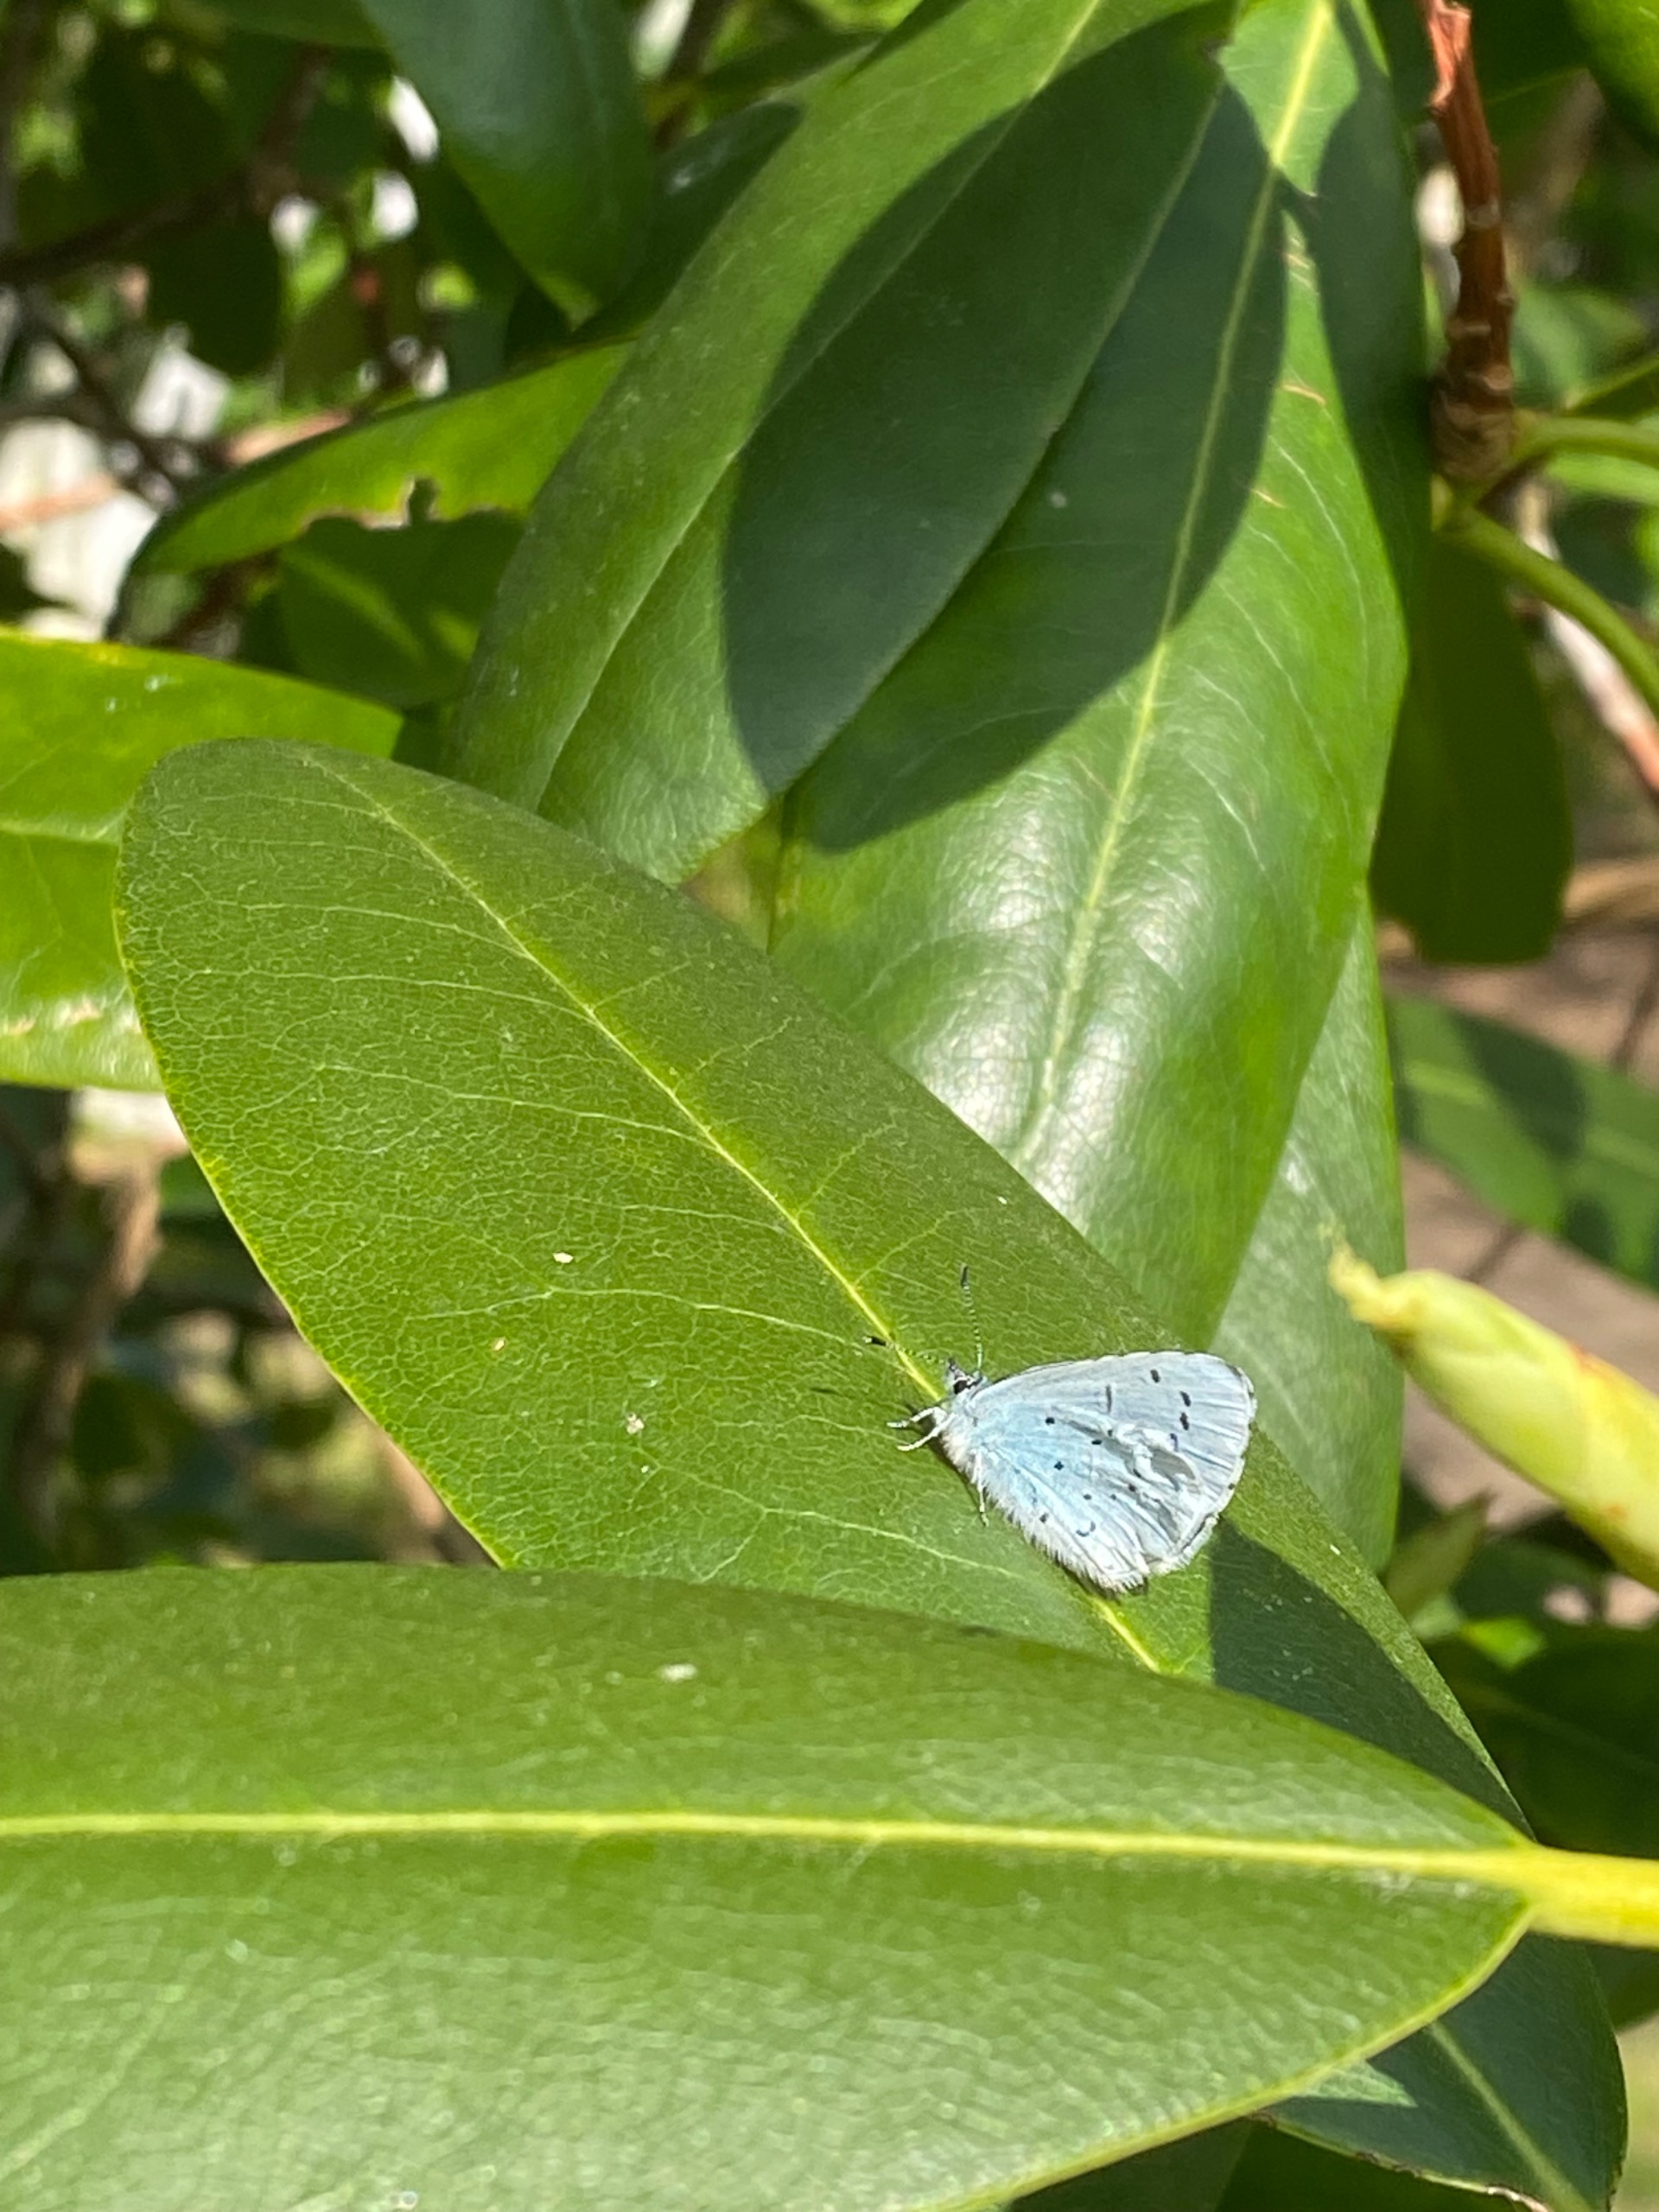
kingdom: Animalia
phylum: Arthropoda
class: Insecta
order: Lepidoptera
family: Lycaenidae
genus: Celastrina
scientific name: Celastrina argiolus
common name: Skovblåfugl
